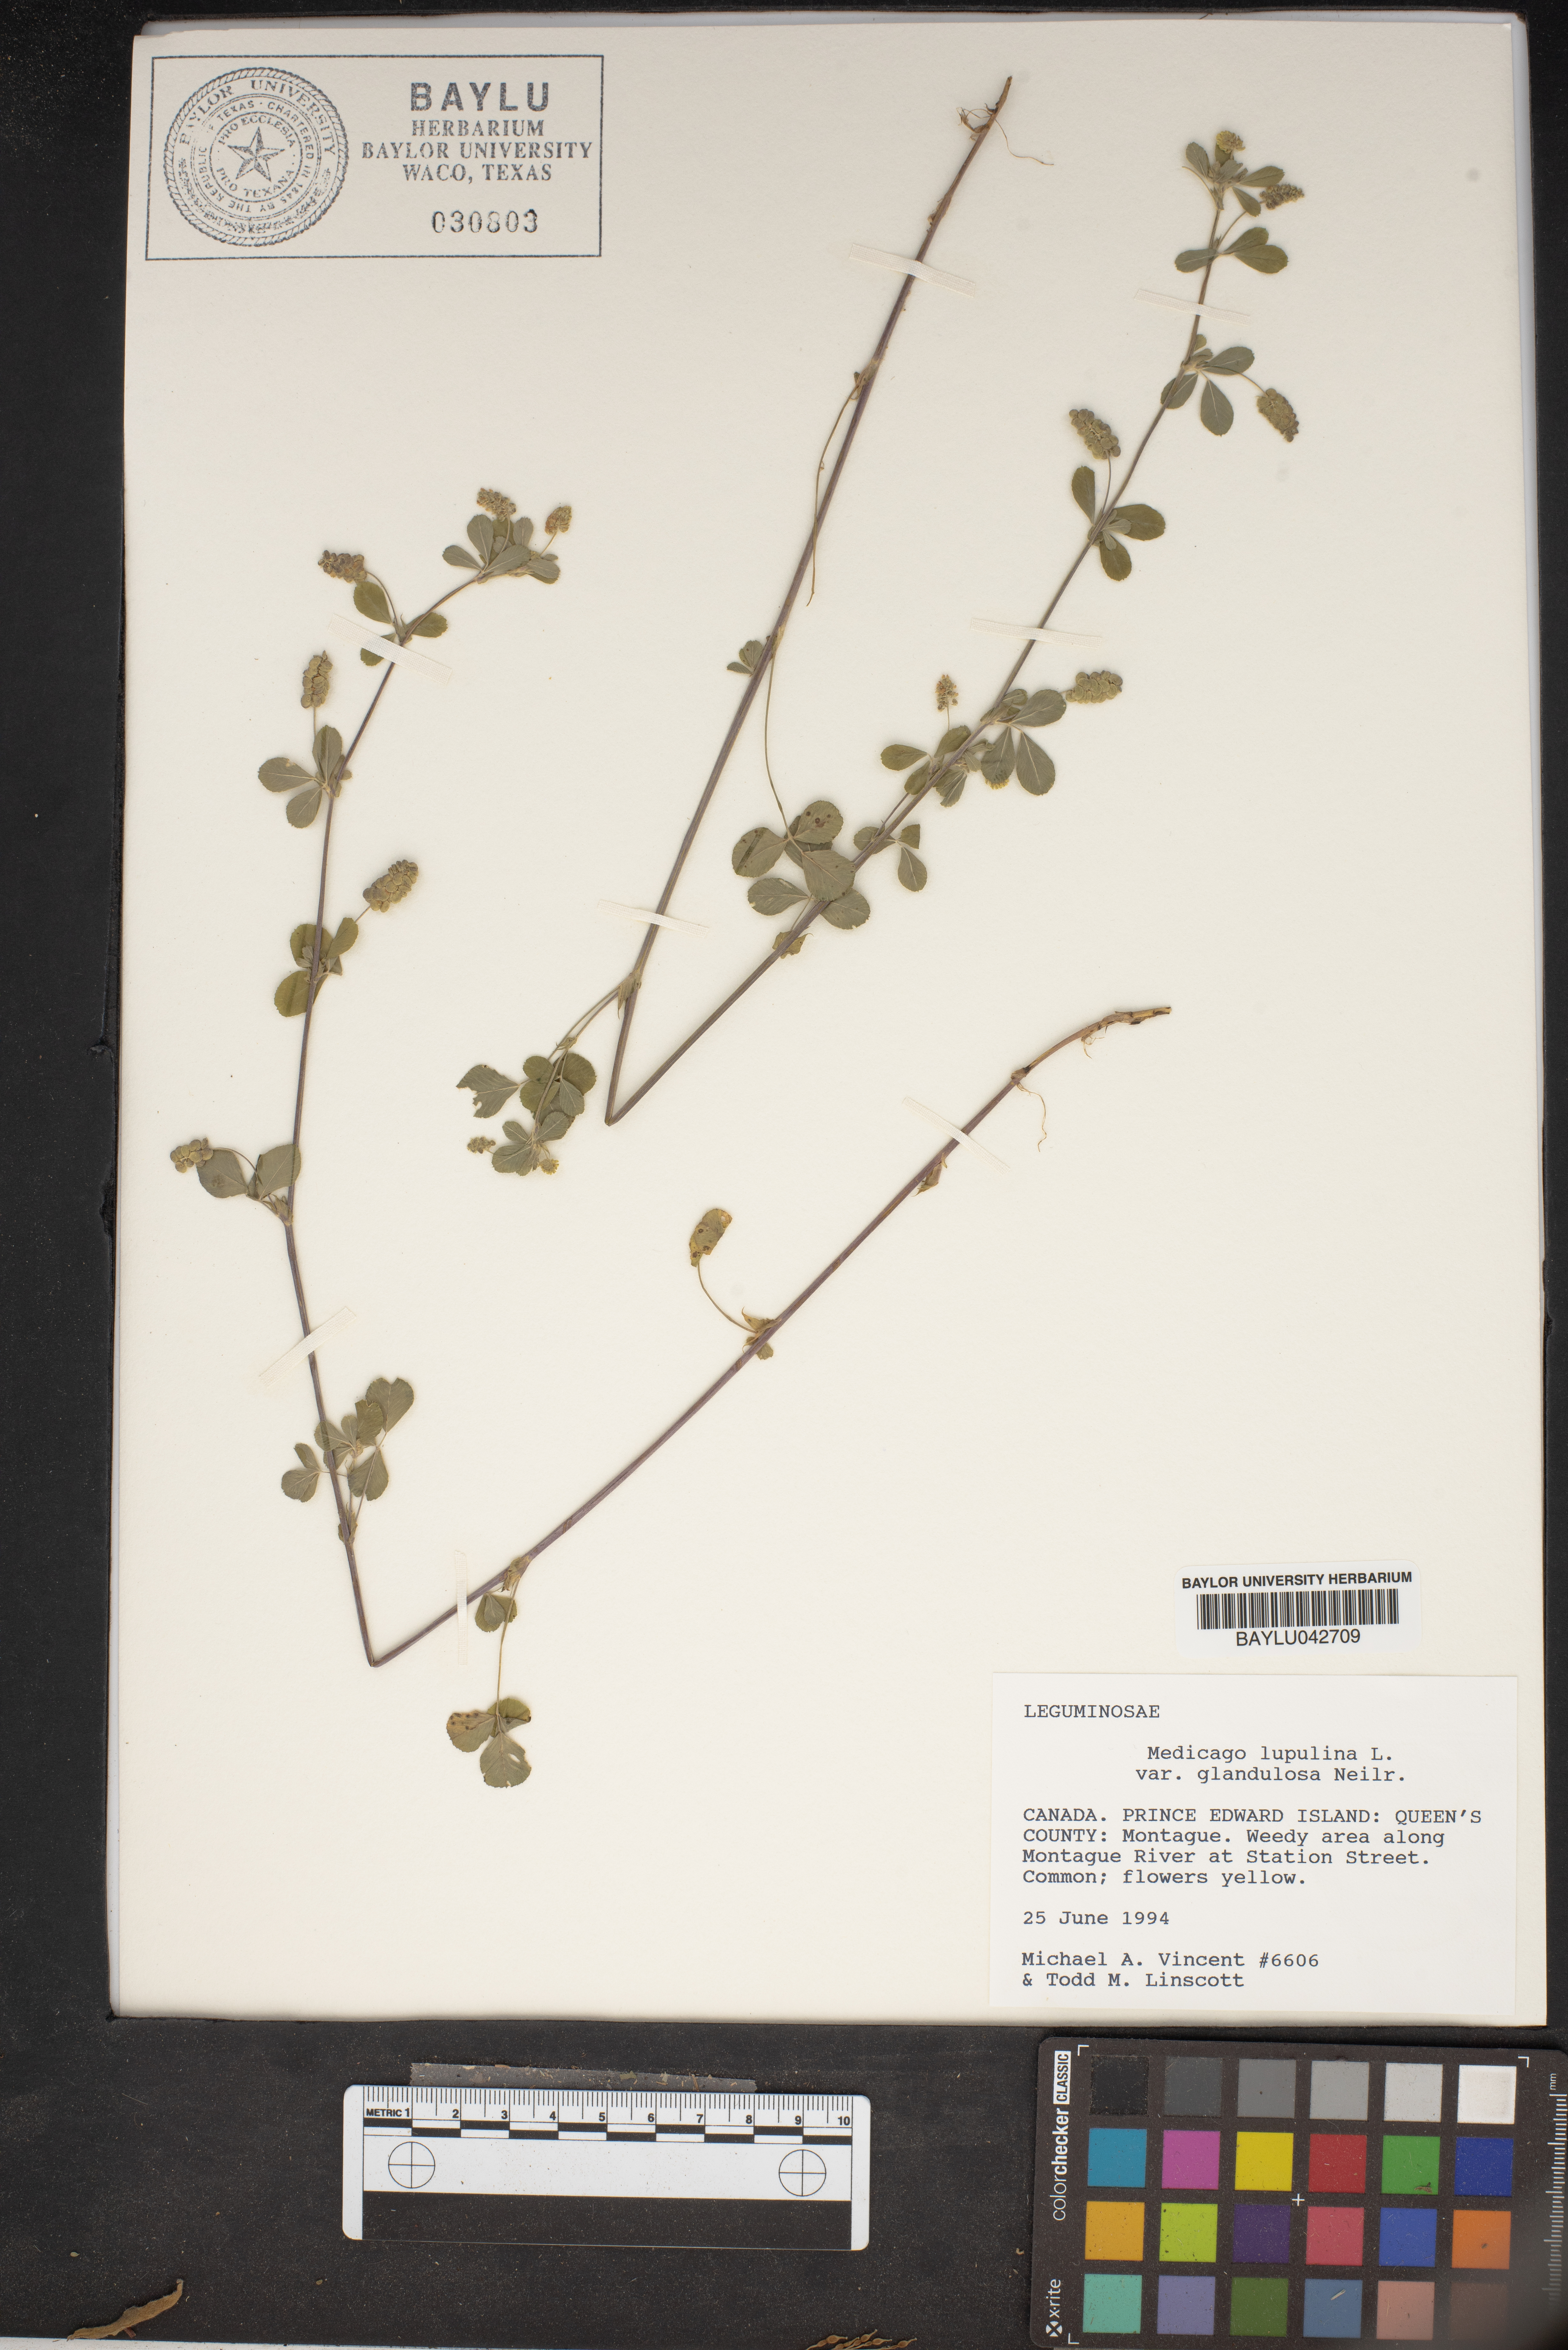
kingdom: Plantae
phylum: Tracheophyta
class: Magnoliopsida
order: Fabales
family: Fabaceae
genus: Medicago
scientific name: Medicago lupulina
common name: Black medick
